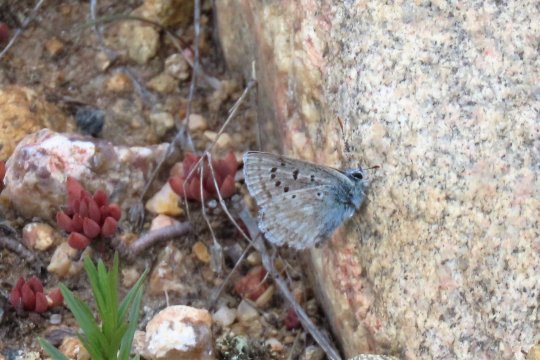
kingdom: Animalia
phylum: Arthropoda
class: Insecta
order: Lepidoptera
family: Lycaenidae
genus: Agriades
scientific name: Agriades glandon
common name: Arctic Blue
